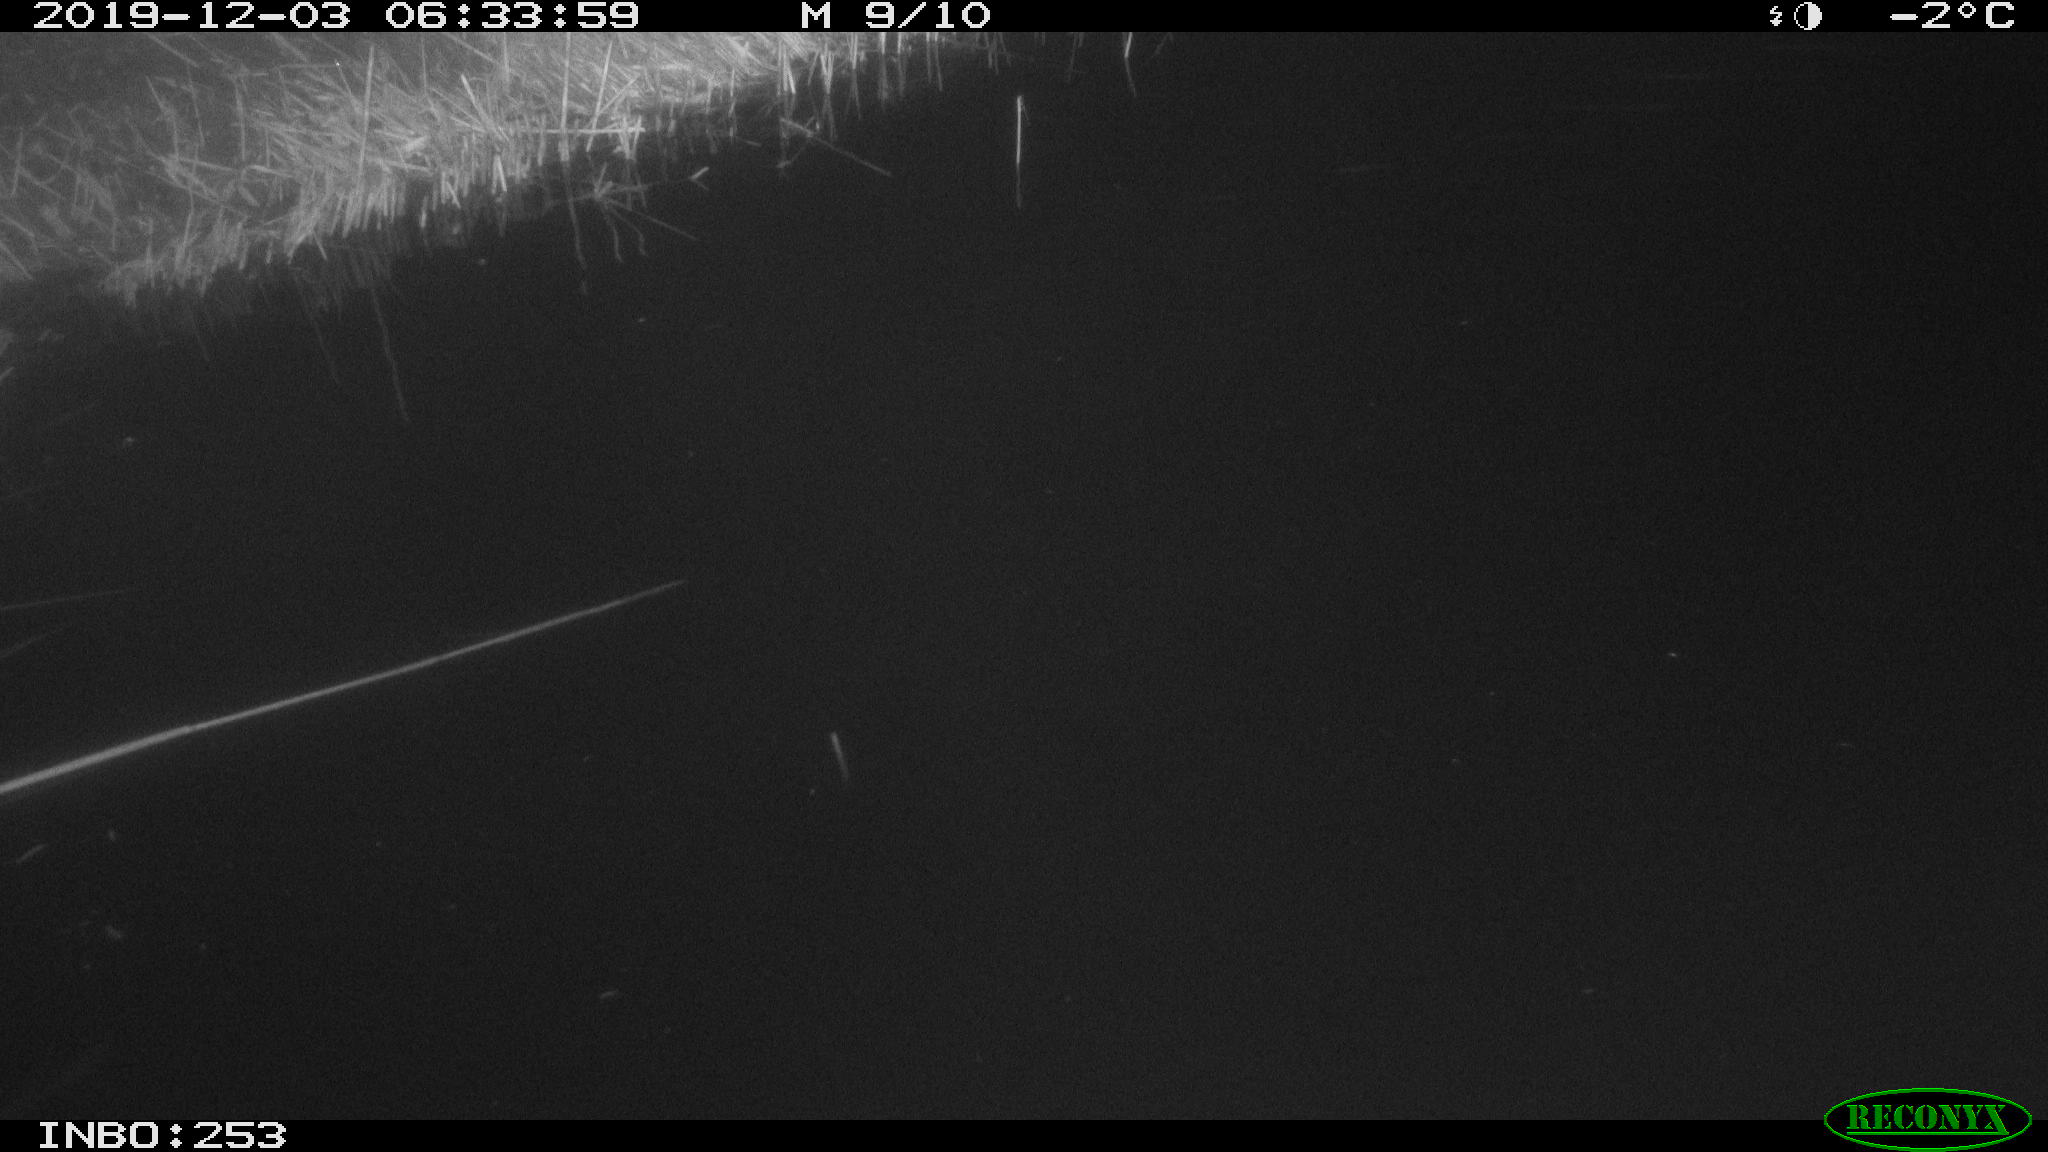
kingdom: Animalia
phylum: Chordata
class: Aves
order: Anseriformes
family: Anatidae
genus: Anas
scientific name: Anas platyrhynchos
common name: Mallard
